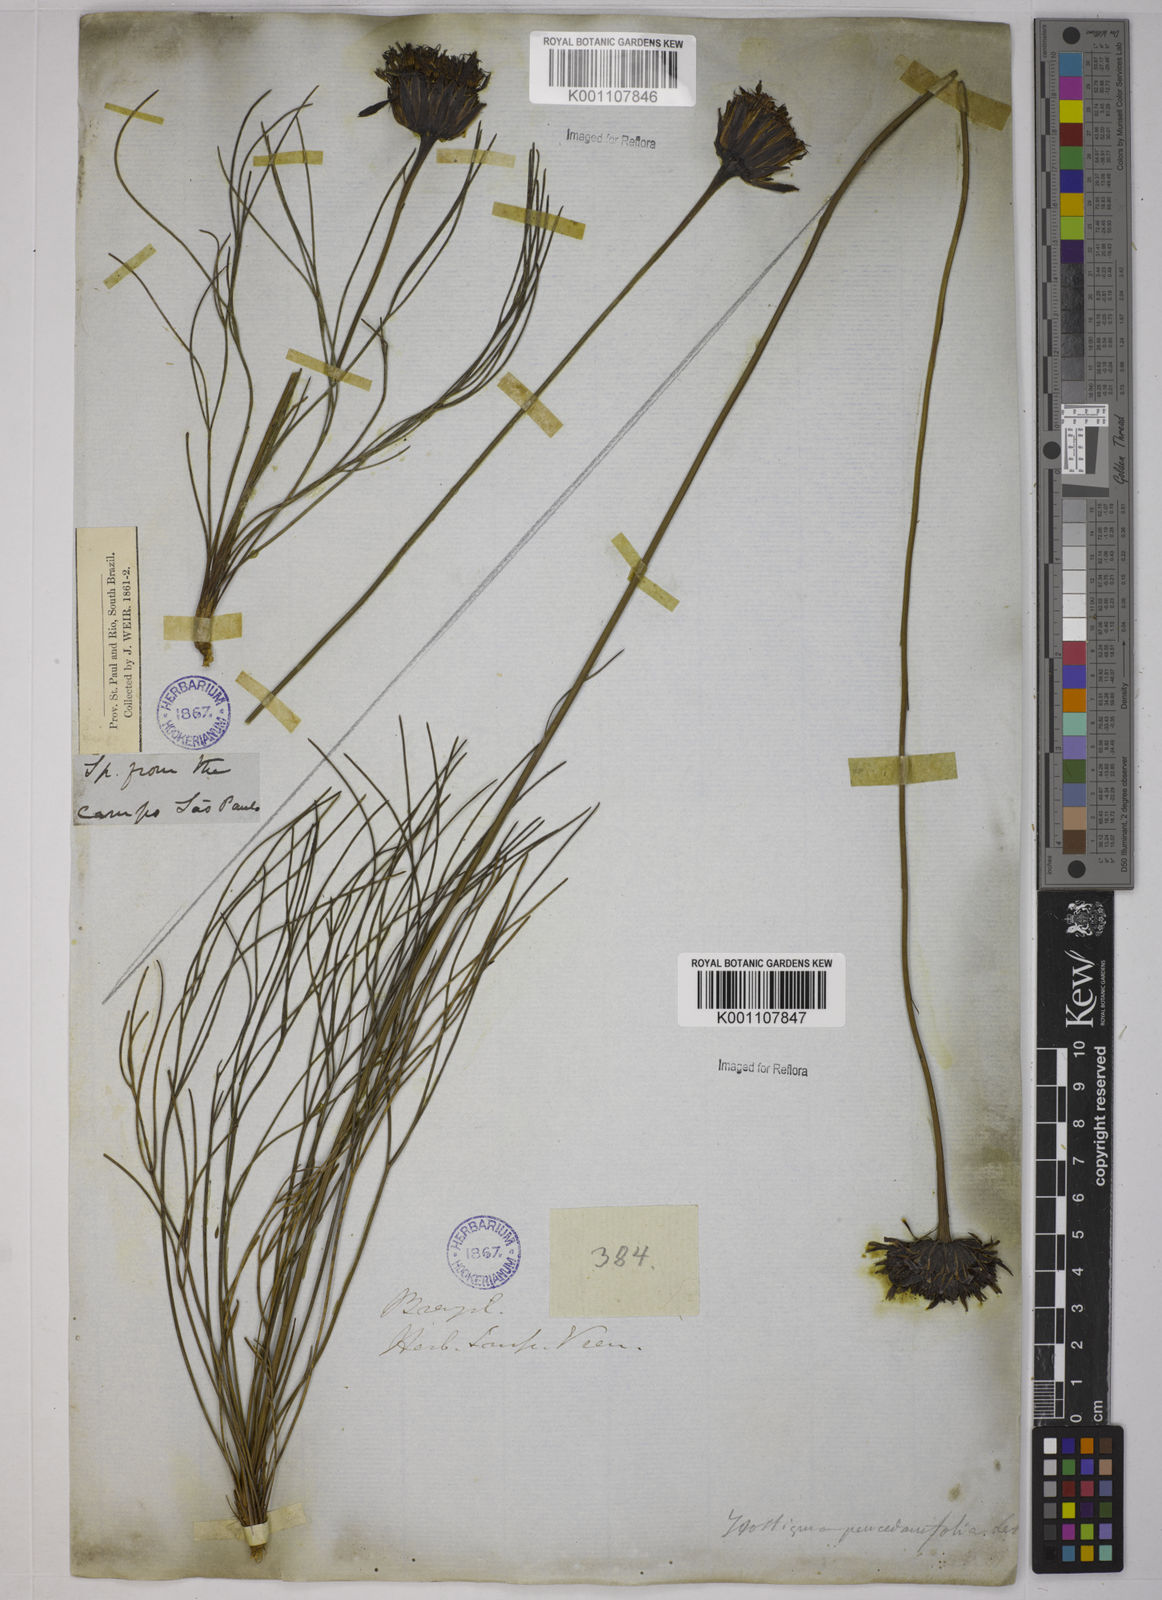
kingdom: Plantae
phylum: Tracheophyta
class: Magnoliopsida
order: Asterales
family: Asteraceae
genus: Isostigma
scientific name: Isostigma
